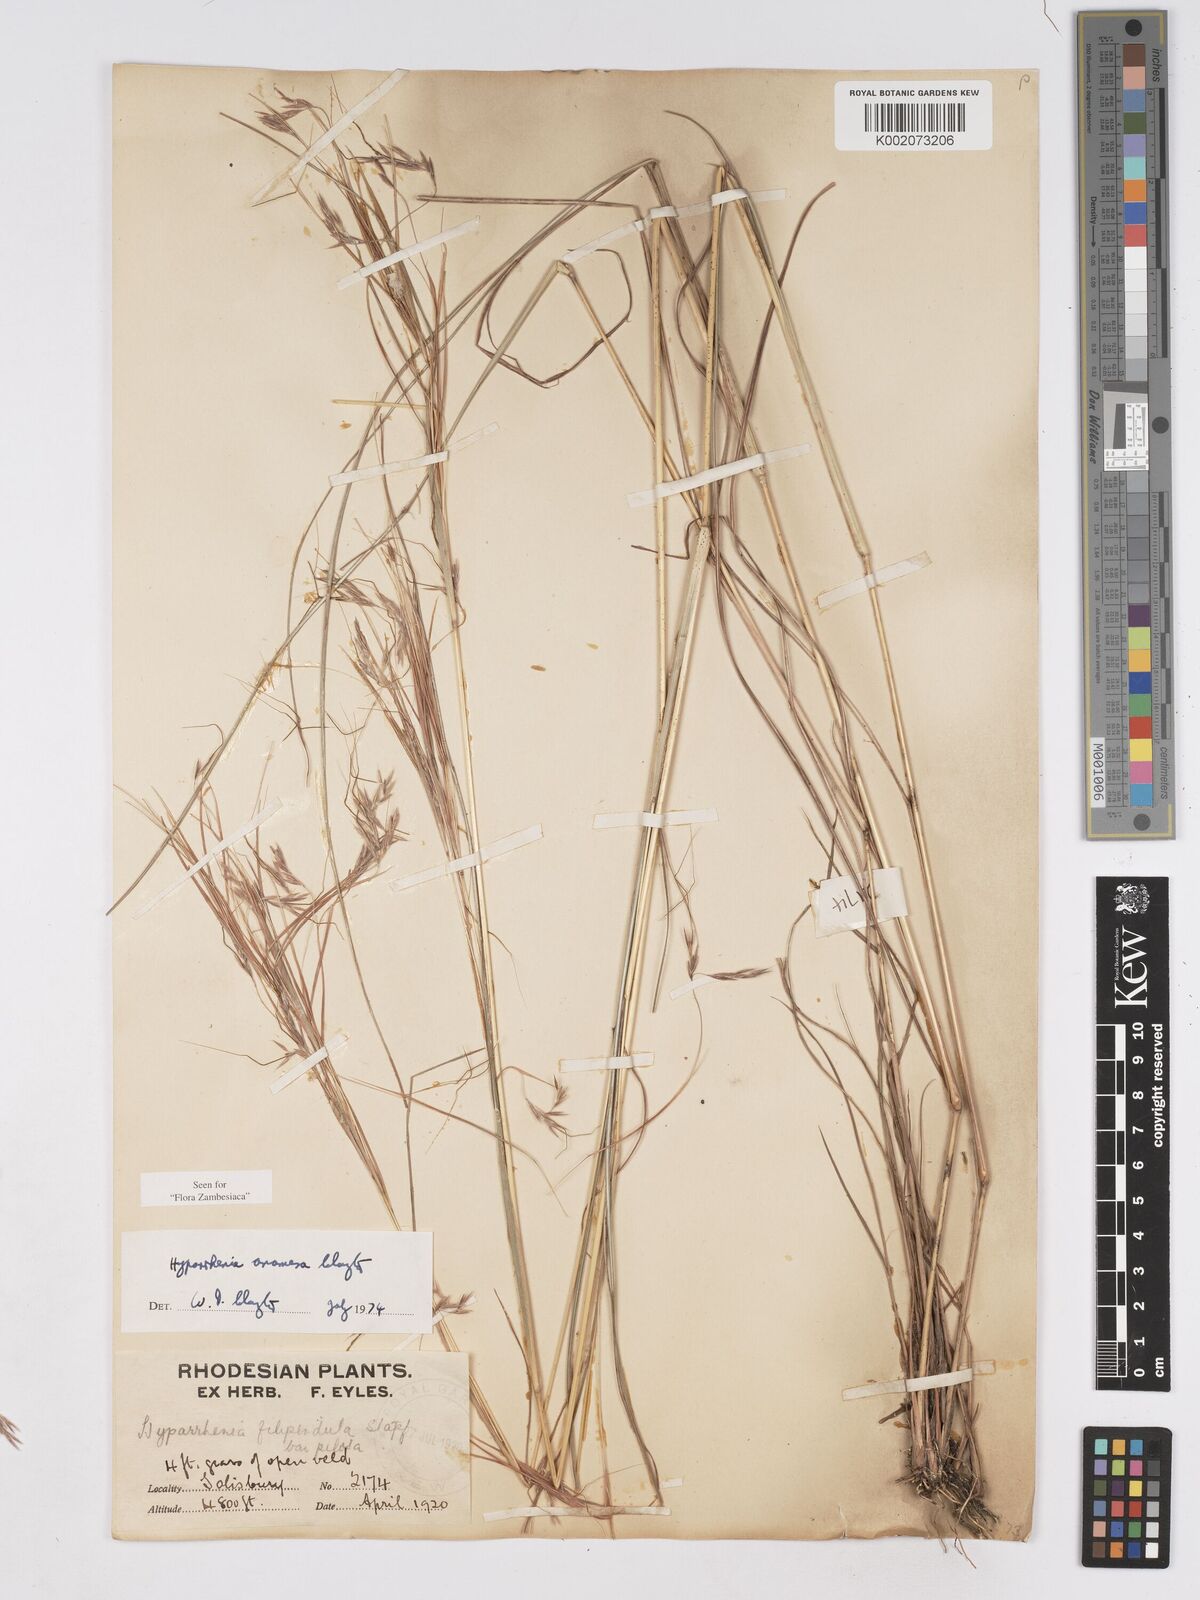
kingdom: Plantae
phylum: Tracheophyta
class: Liliopsida
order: Poales
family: Poaceae
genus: Hyparrhenia
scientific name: Hyparrhenia anamesa
